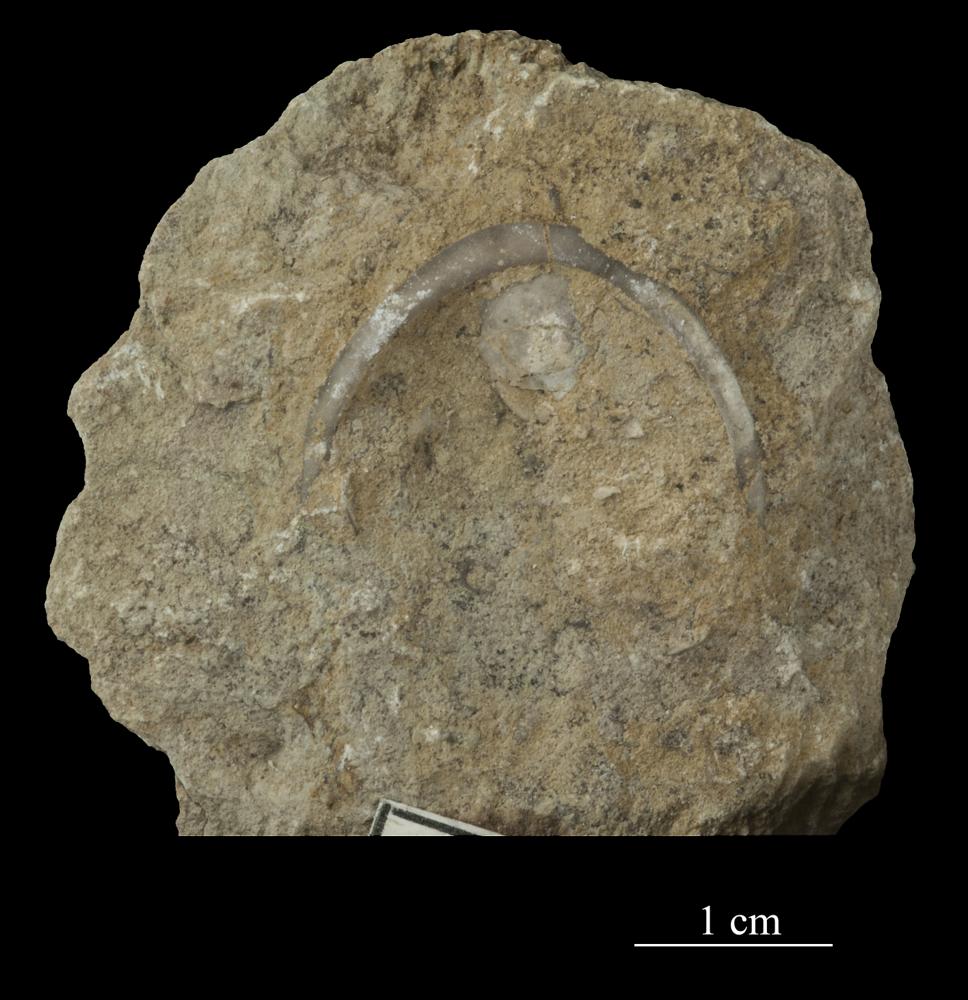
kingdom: Animalia
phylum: Brachiopoda
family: Strophomenidae
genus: Tallinnites
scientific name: Tallinnites Oepikina imbrexoidea
